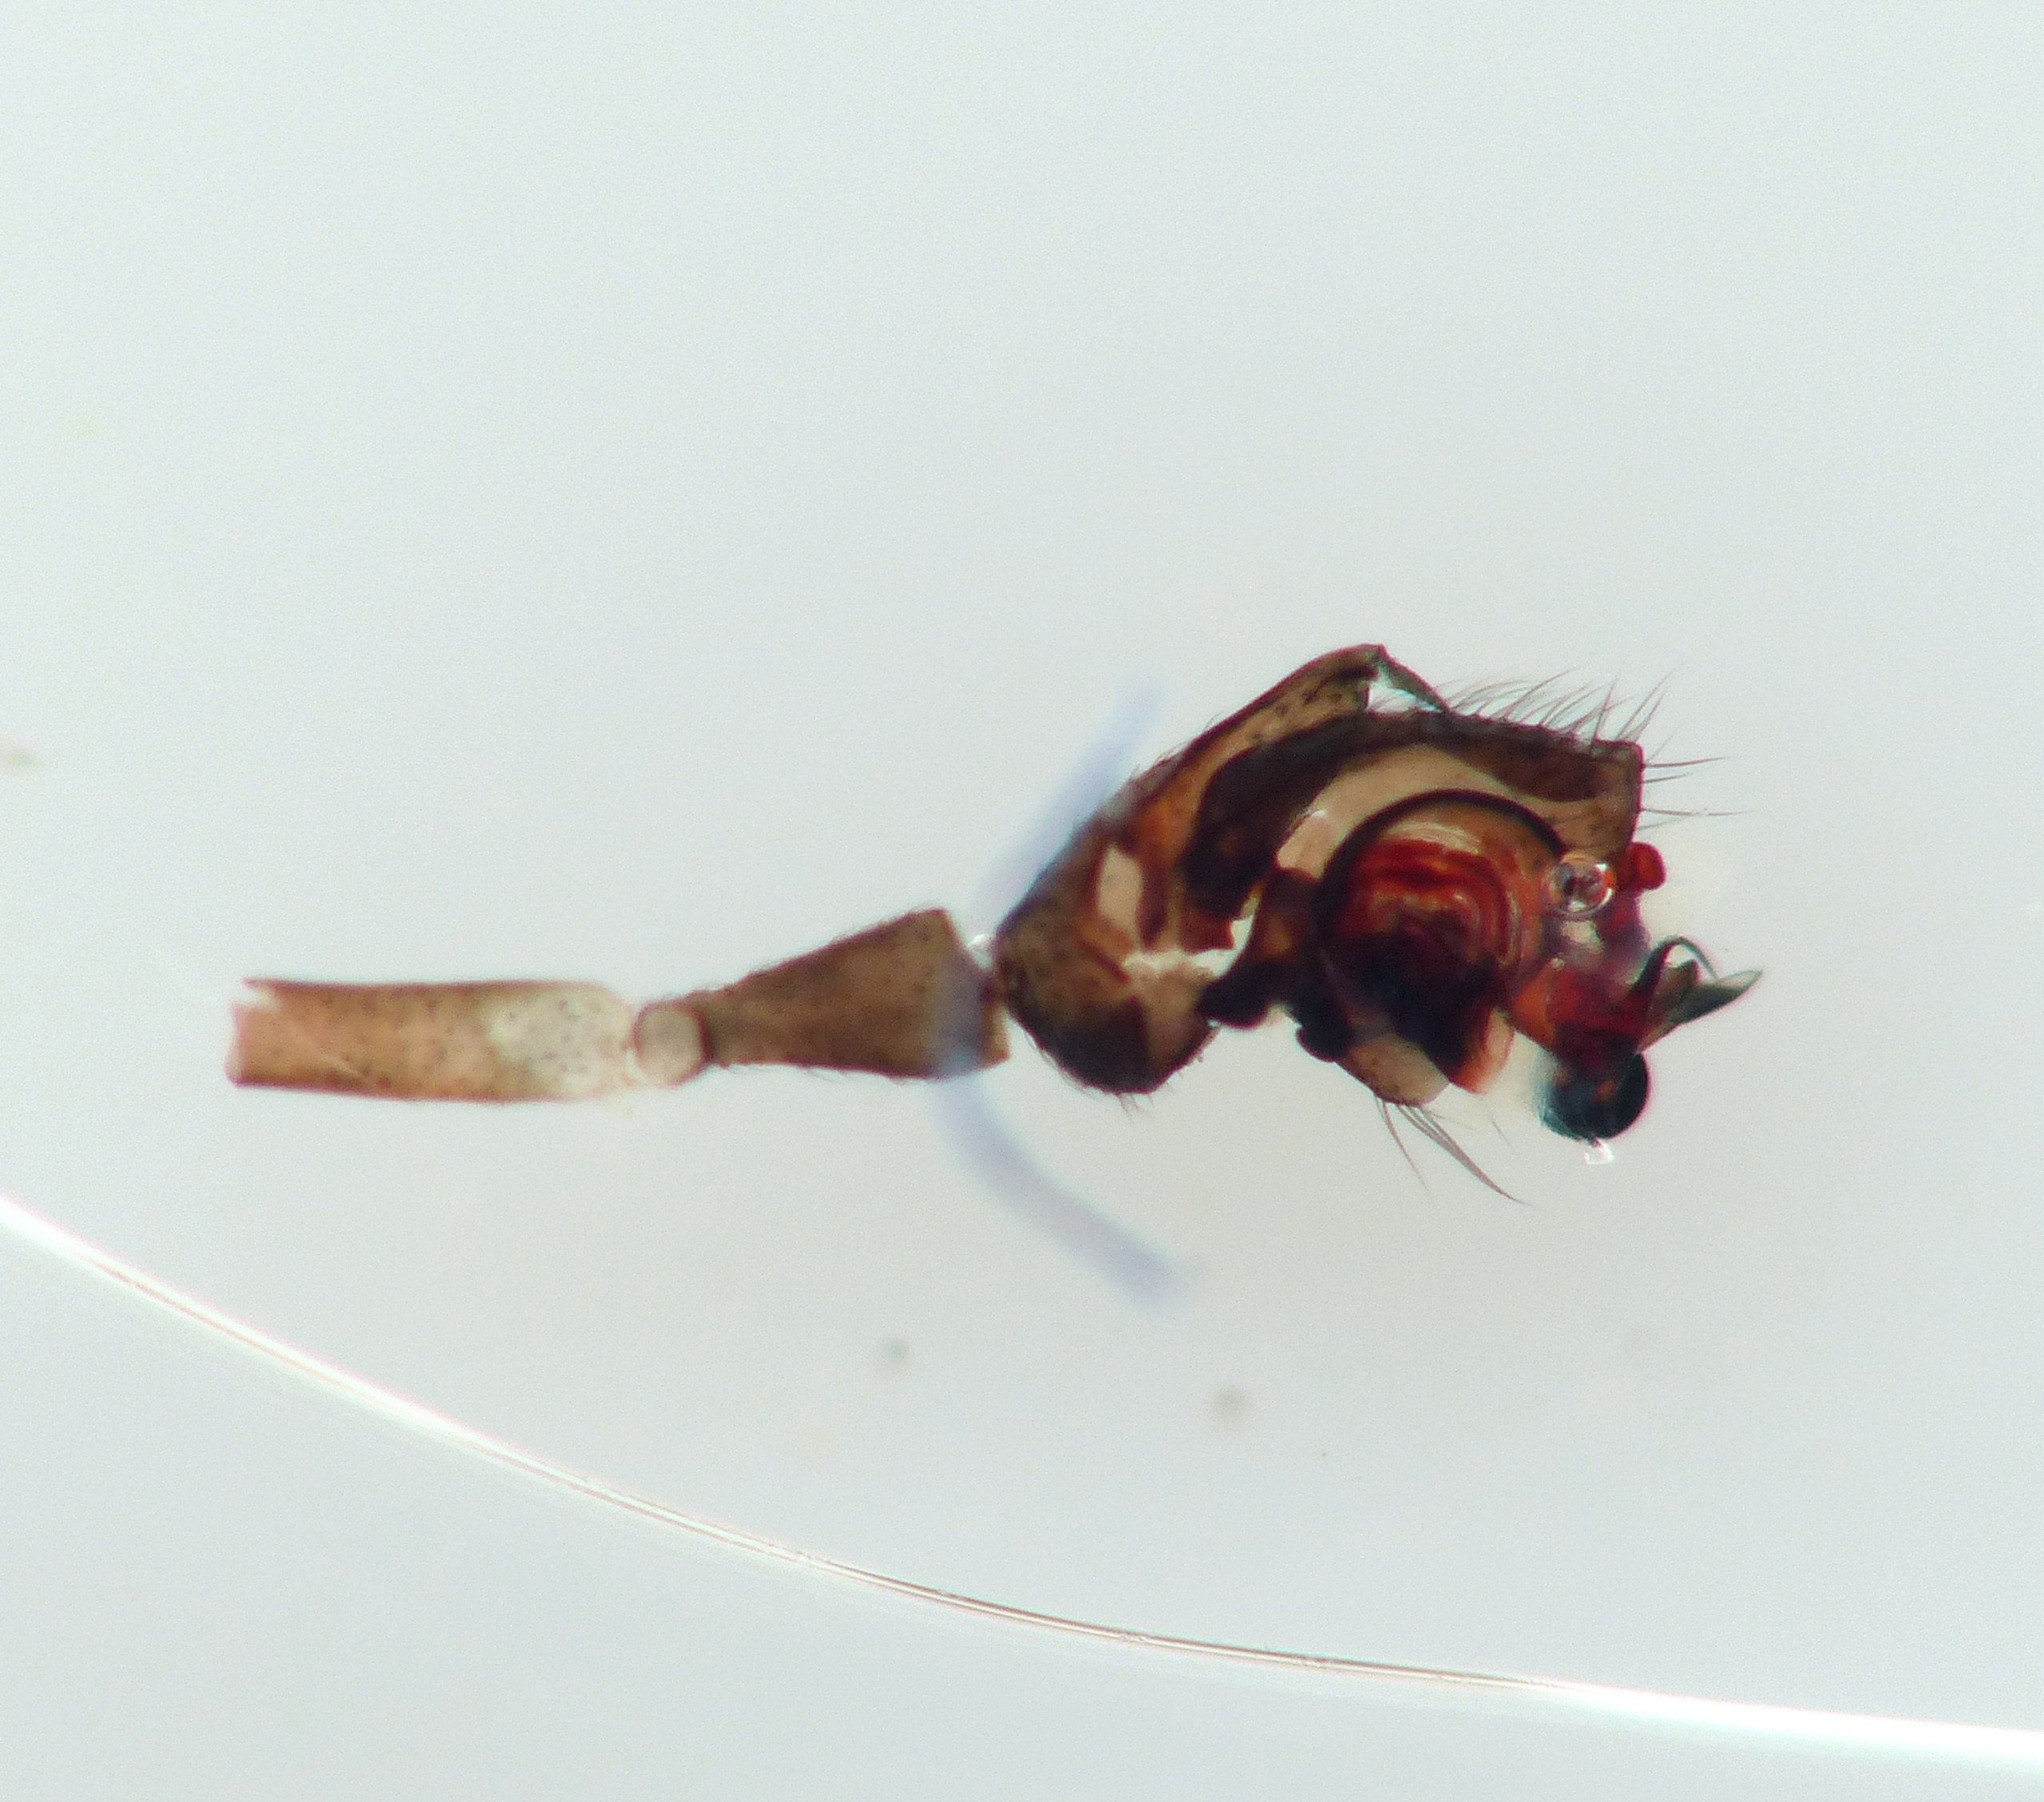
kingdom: Animalia
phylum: Arthropoda
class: Arachnida
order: Araneae
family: Linyphiidae
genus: Dicymbium
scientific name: Dicymbium nigrum
